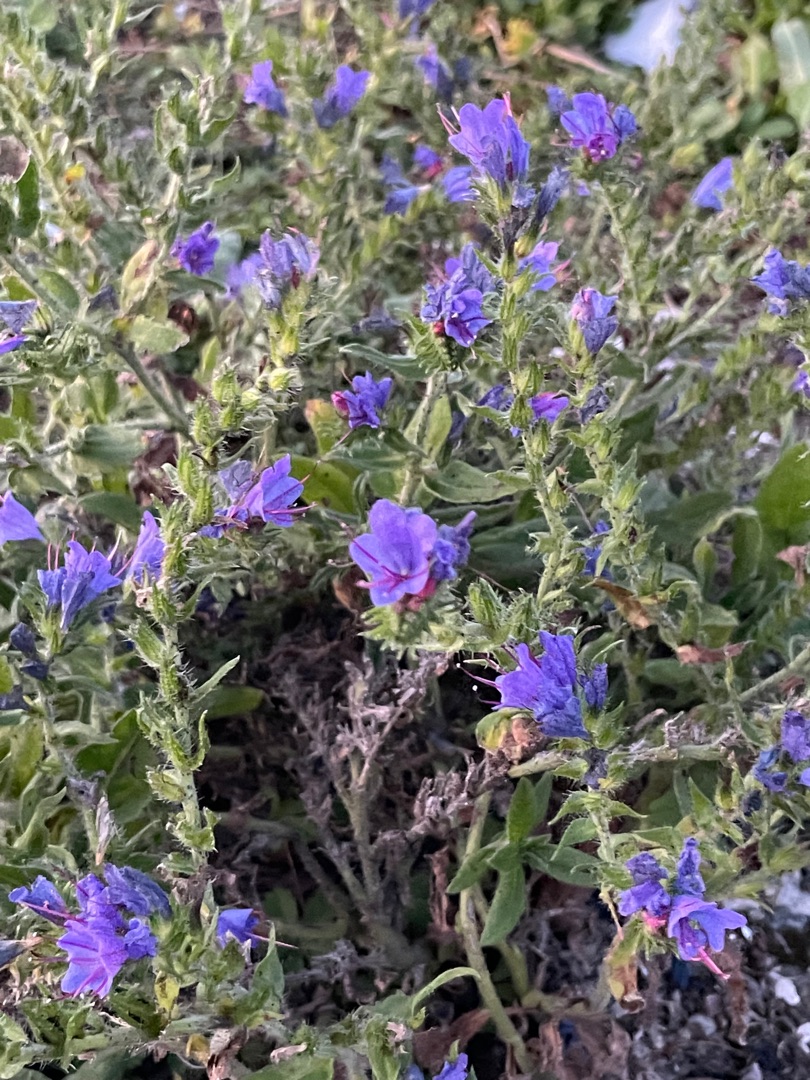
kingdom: Plantae
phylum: Tracheophyta
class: Magnoliopsida
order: Boraginales
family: Boraginaceae
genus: Echium
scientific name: Echium vulgare
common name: Slangehoved
